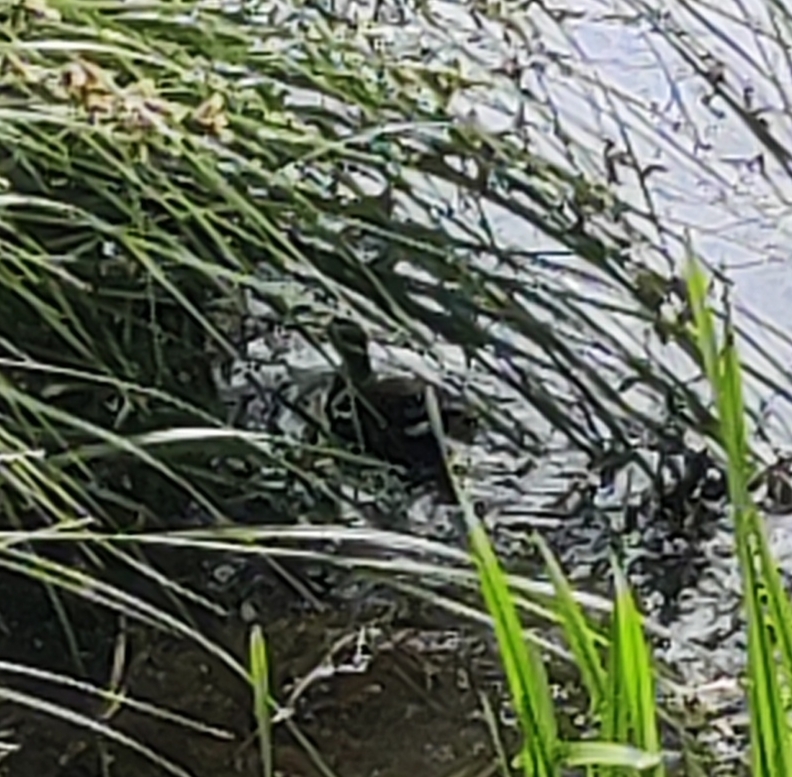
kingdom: Animalia
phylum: Chordata
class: Aves
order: Gruiformes
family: Rallidae
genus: Gallinula
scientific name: Gallinula chloropus
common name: Grønbenet rørhøne
